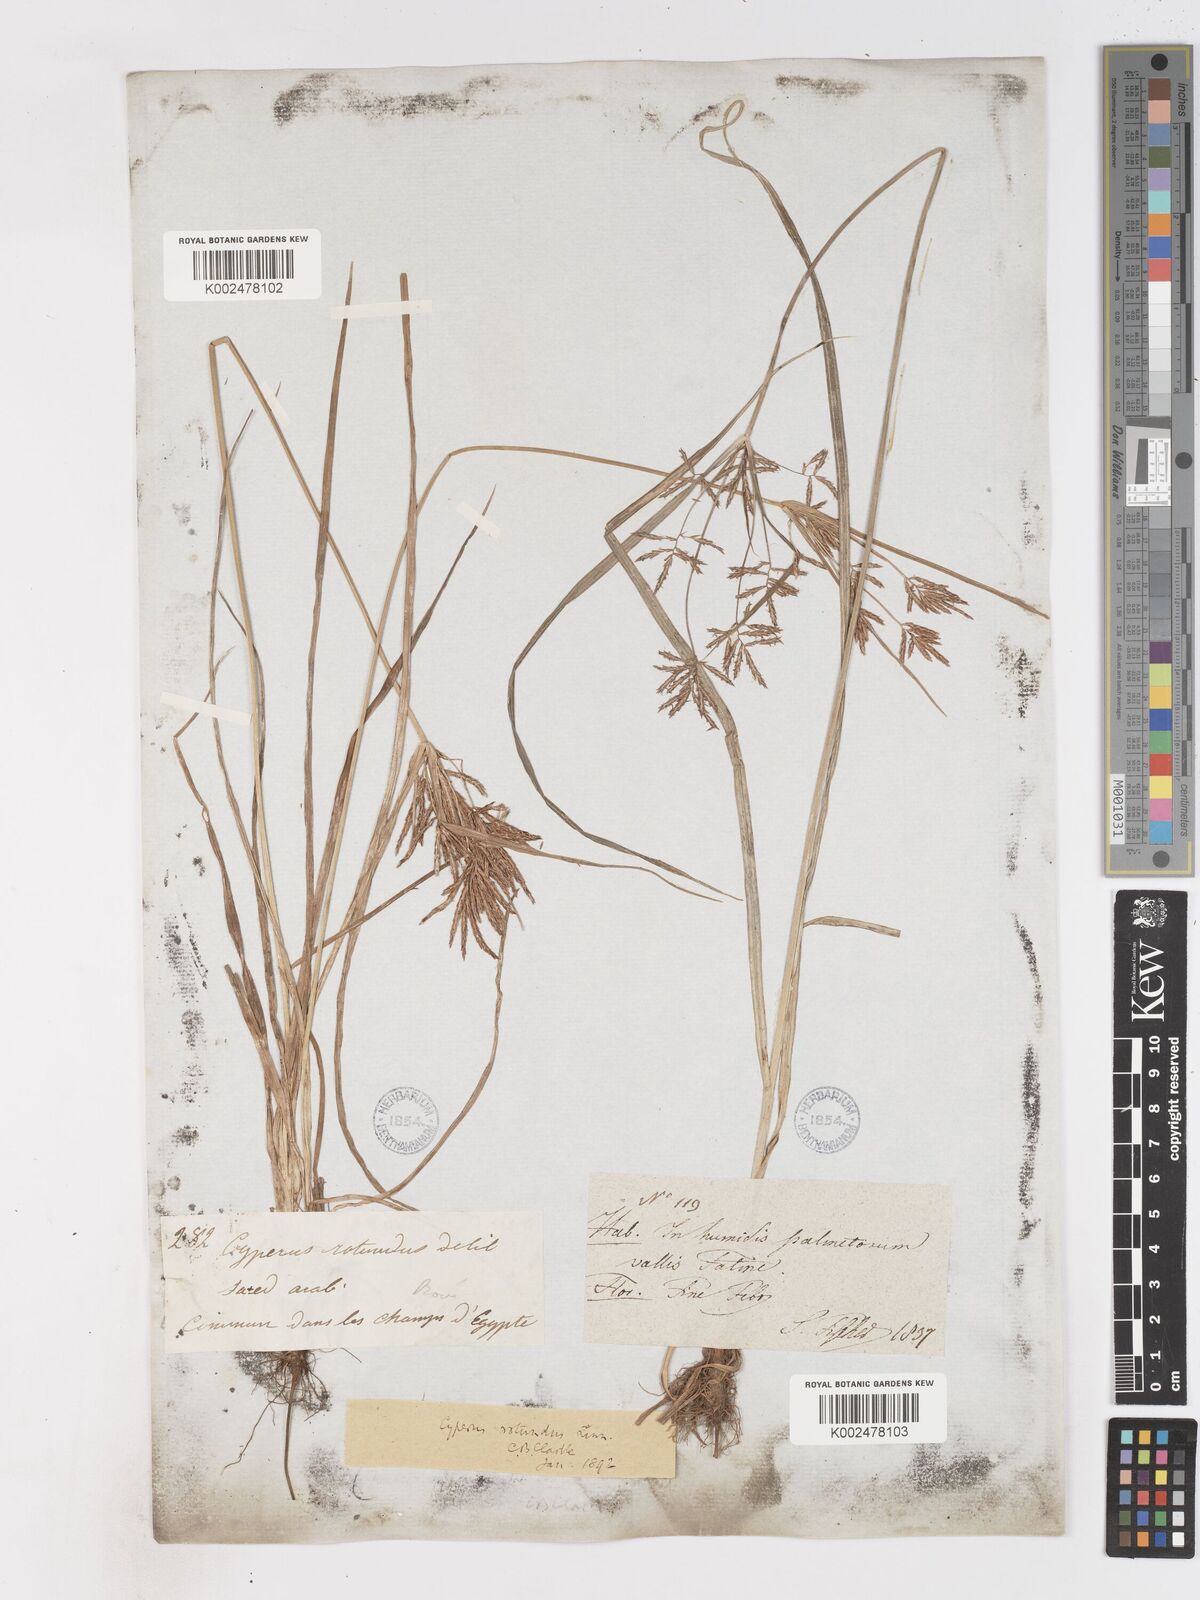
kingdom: Plantae
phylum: Tracheophyta
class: Liliopsida
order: Poales
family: Cyperaceae
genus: Cyperus
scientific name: Cyperus rotundus
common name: Nutgrass
